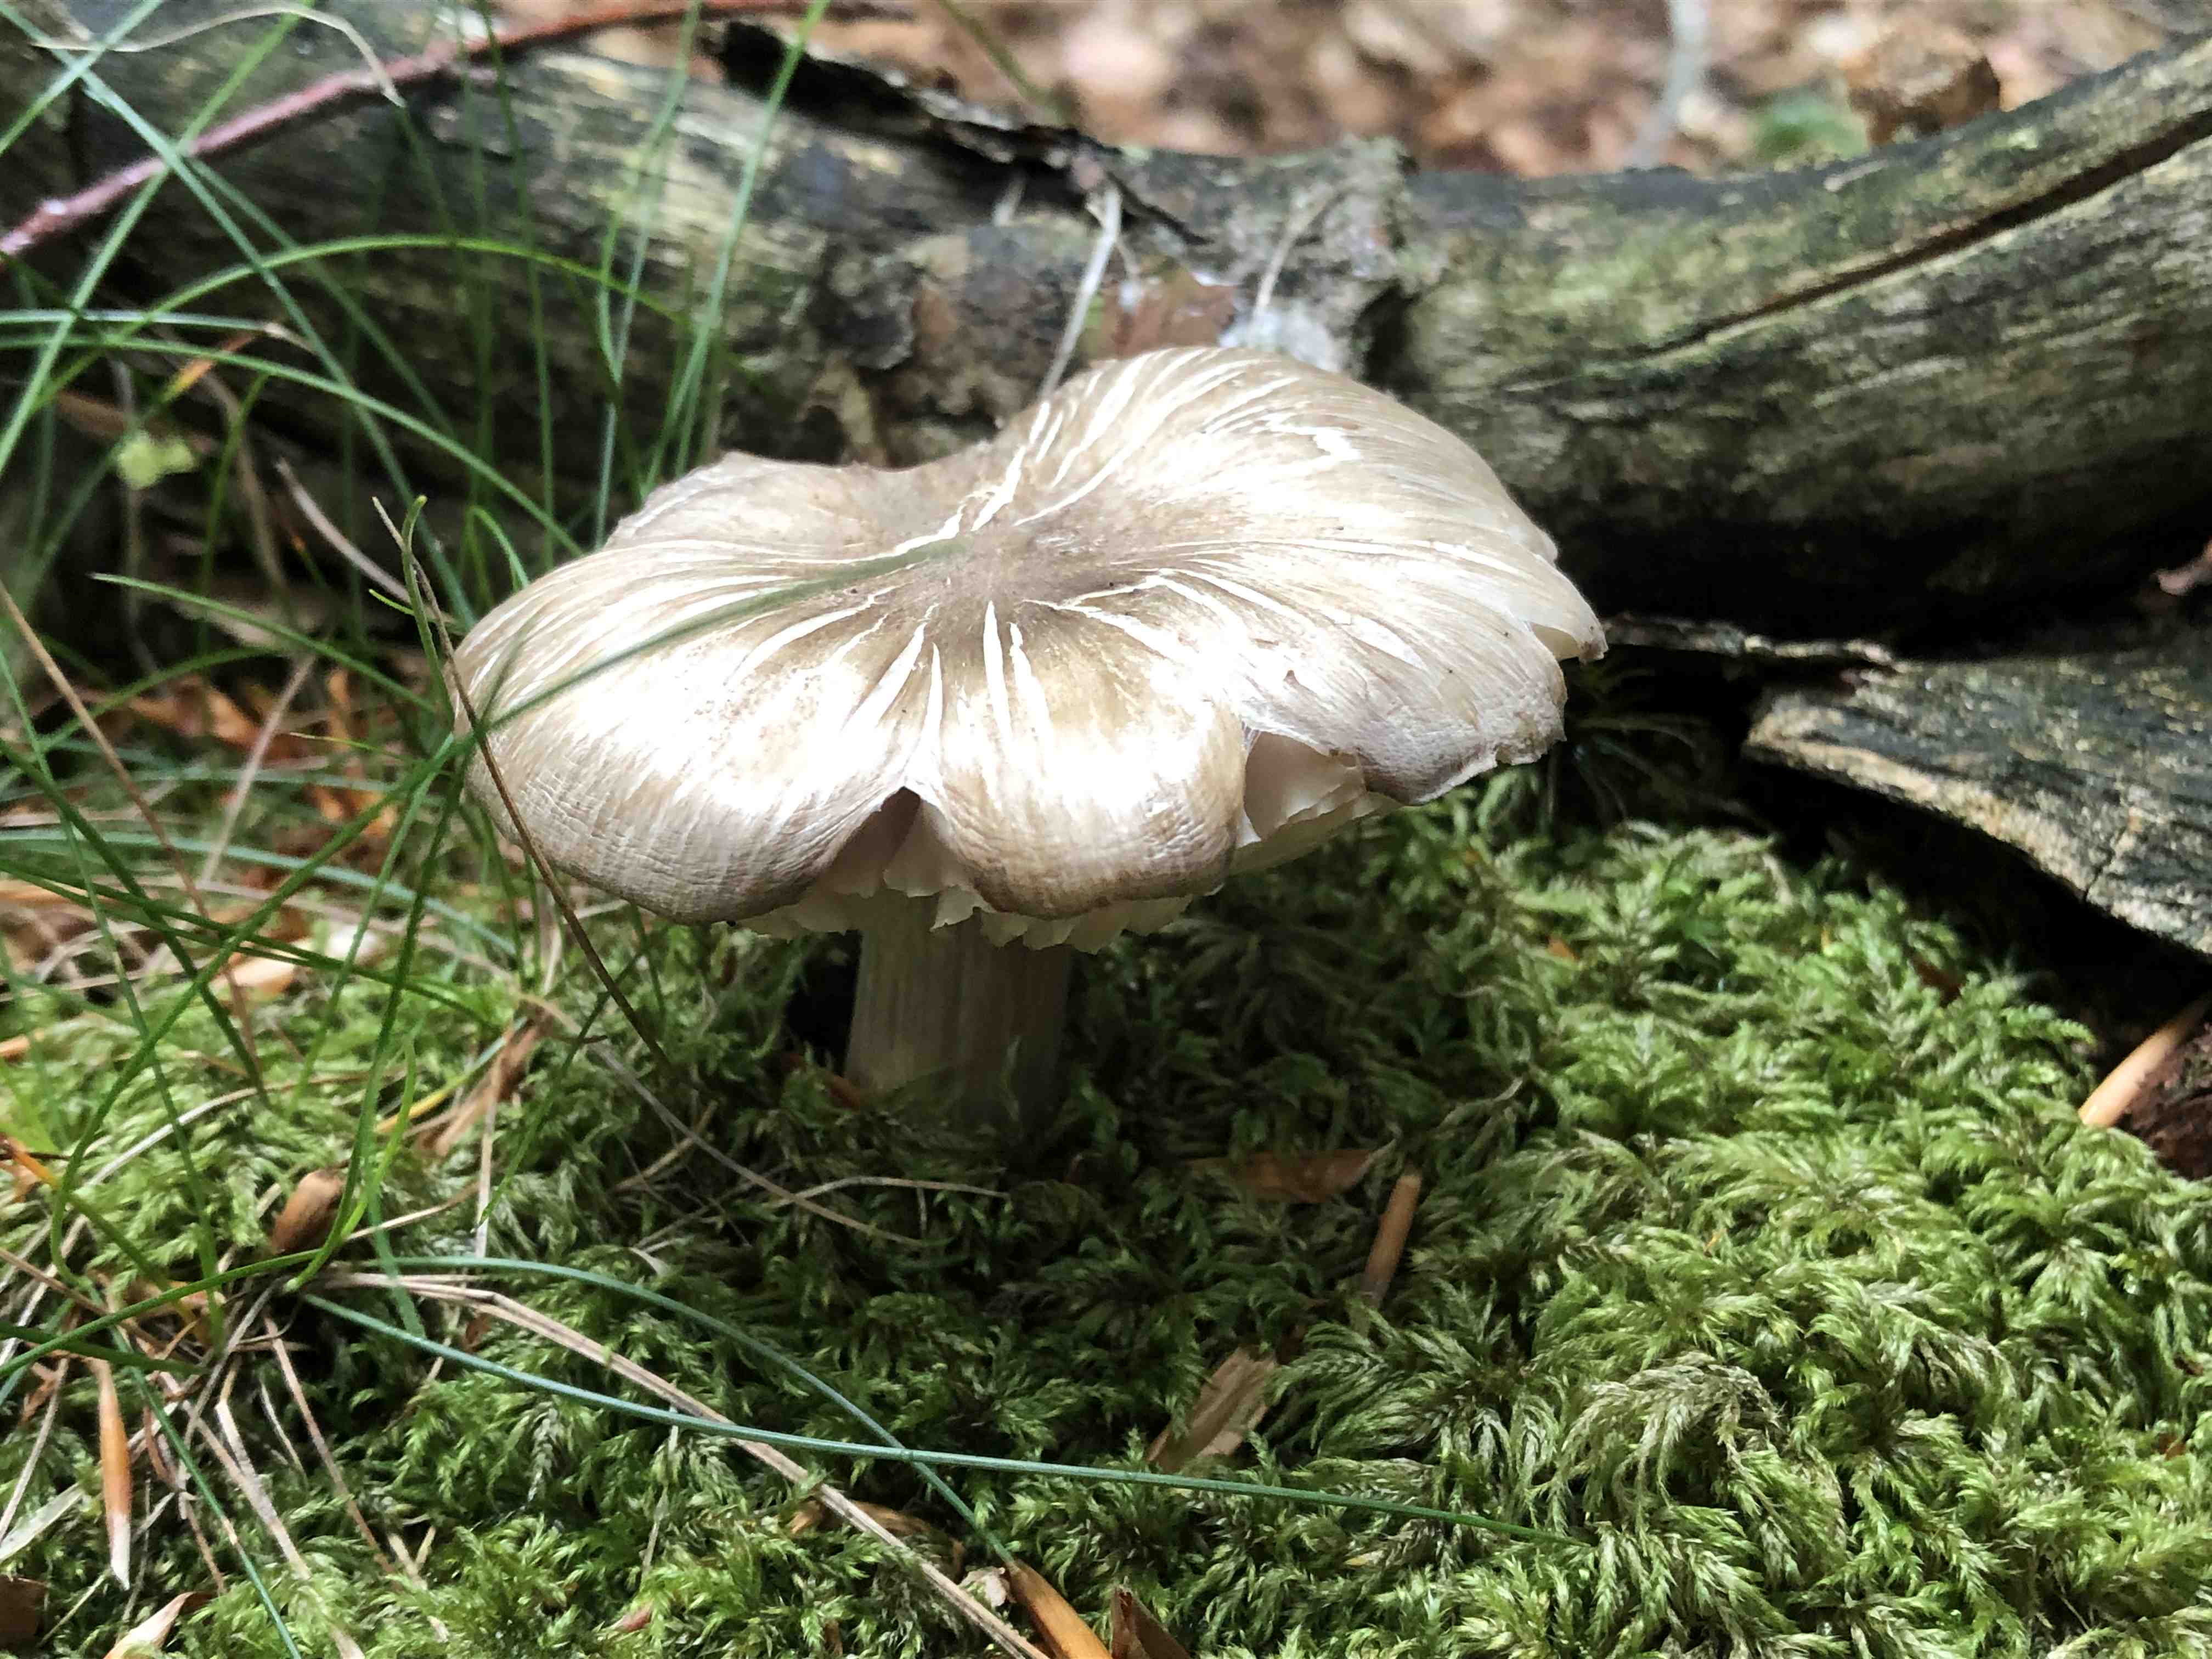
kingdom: Fungi
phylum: Basidiomycota
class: Agaricomycetes
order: Agaricales
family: Tricholomataceae
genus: Megacollybia
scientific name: Megacollybia platyphylla
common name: bredbladet væbnerhat
